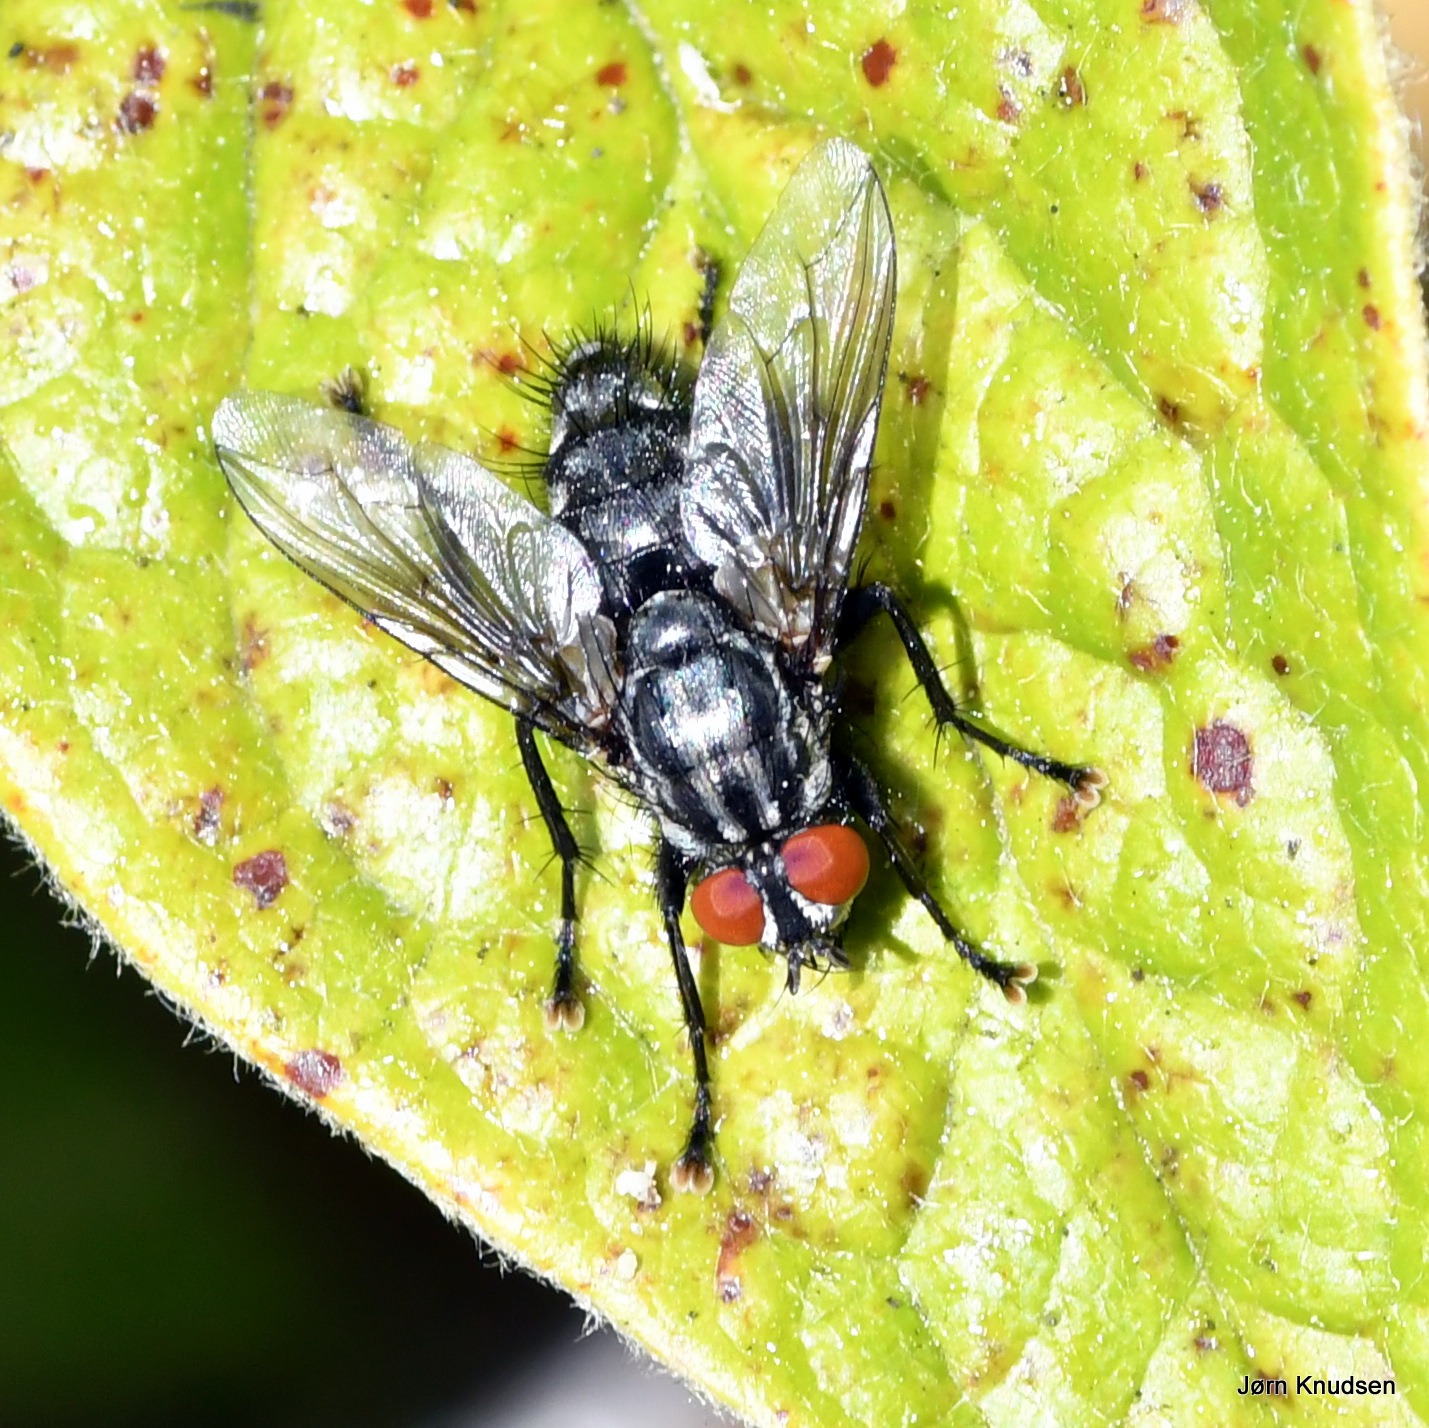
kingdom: Animalia
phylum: Arthropoda
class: Insecta
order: Diptera
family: Sarcophagidae
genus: Sarcophaga
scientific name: Sarcophaga
